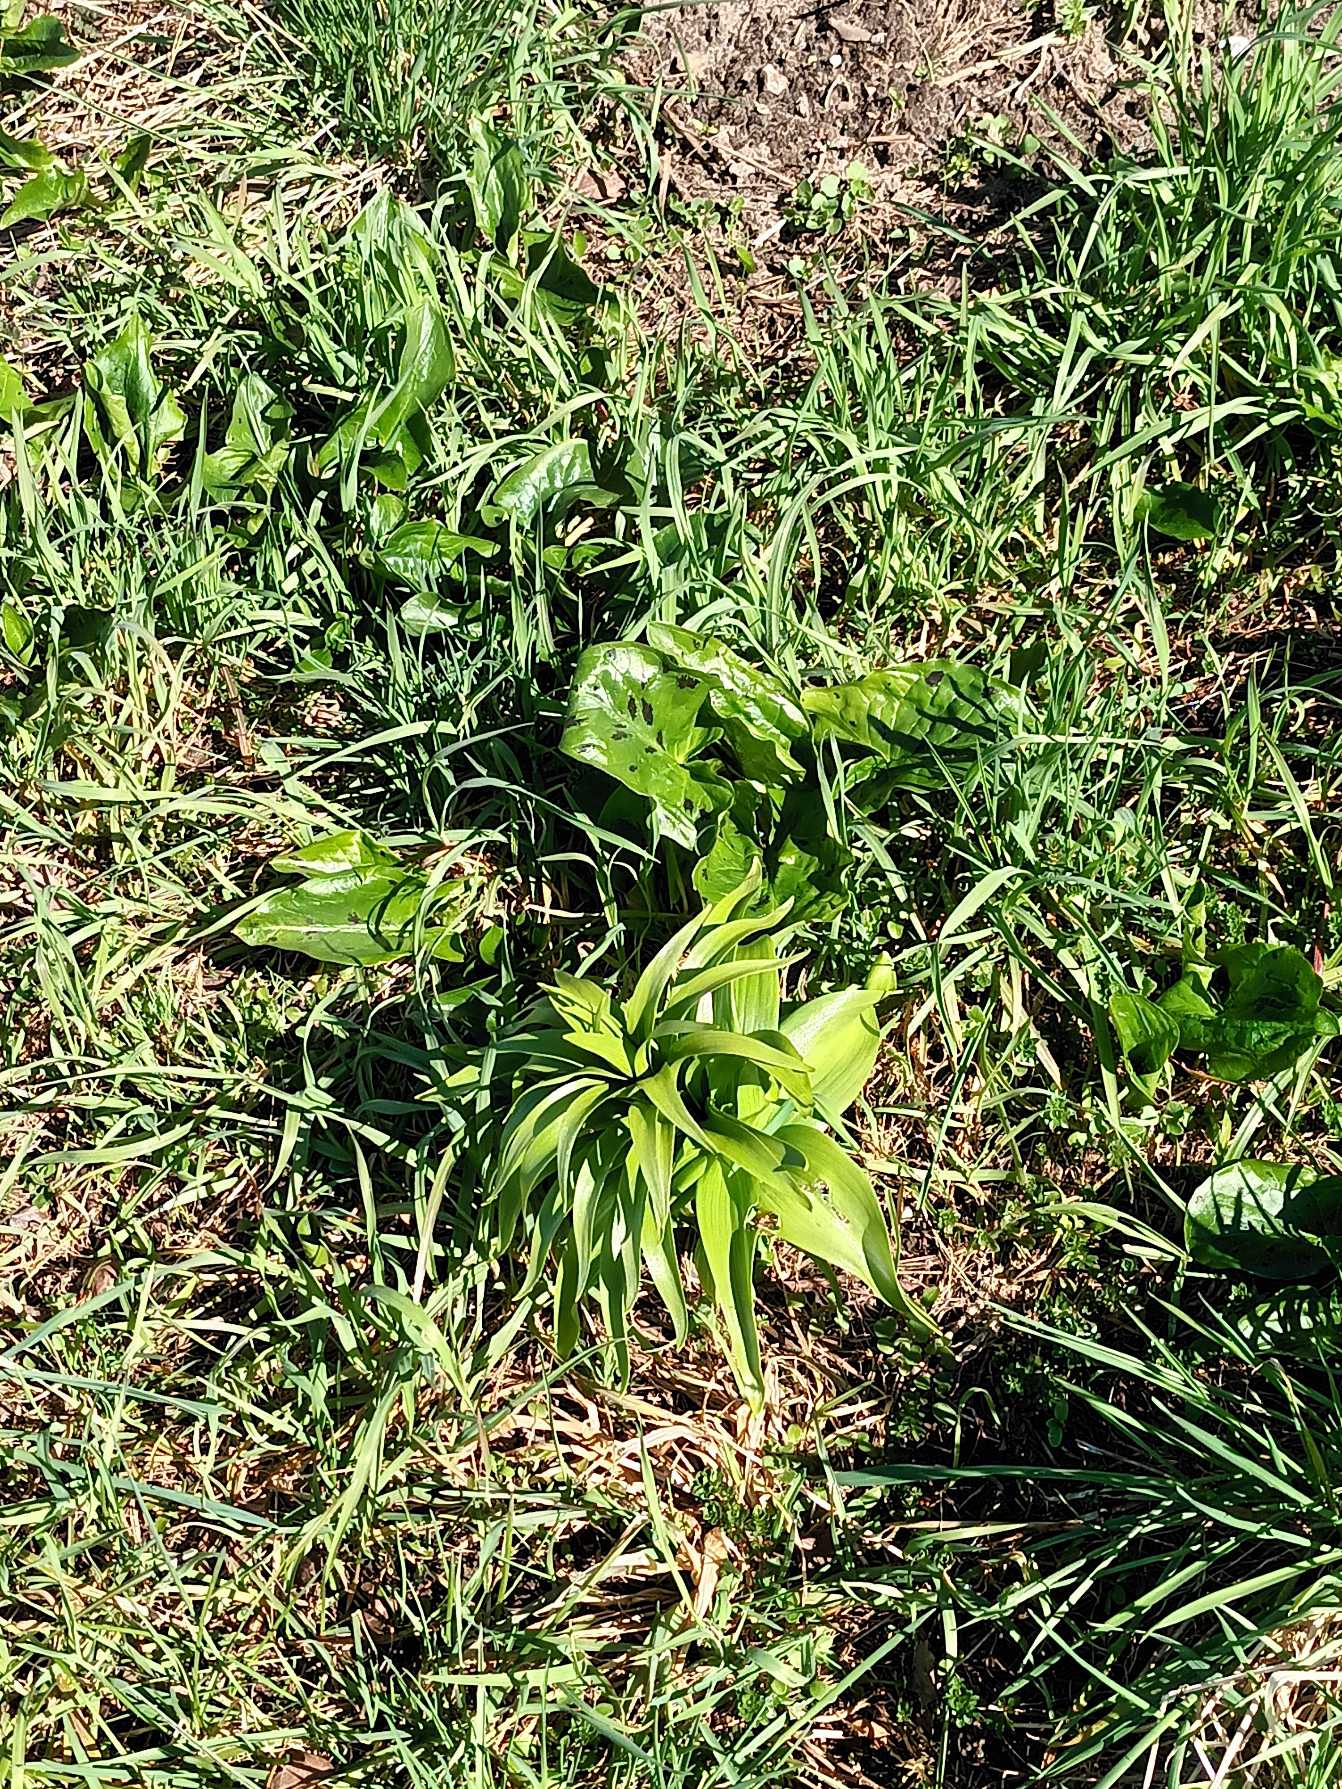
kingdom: Plantae
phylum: Tracheophyta
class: Liliopsida
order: Liliales
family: Liliaceae
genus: Fritillaria
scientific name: Fritillaria imperialis
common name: Kejserkrone
